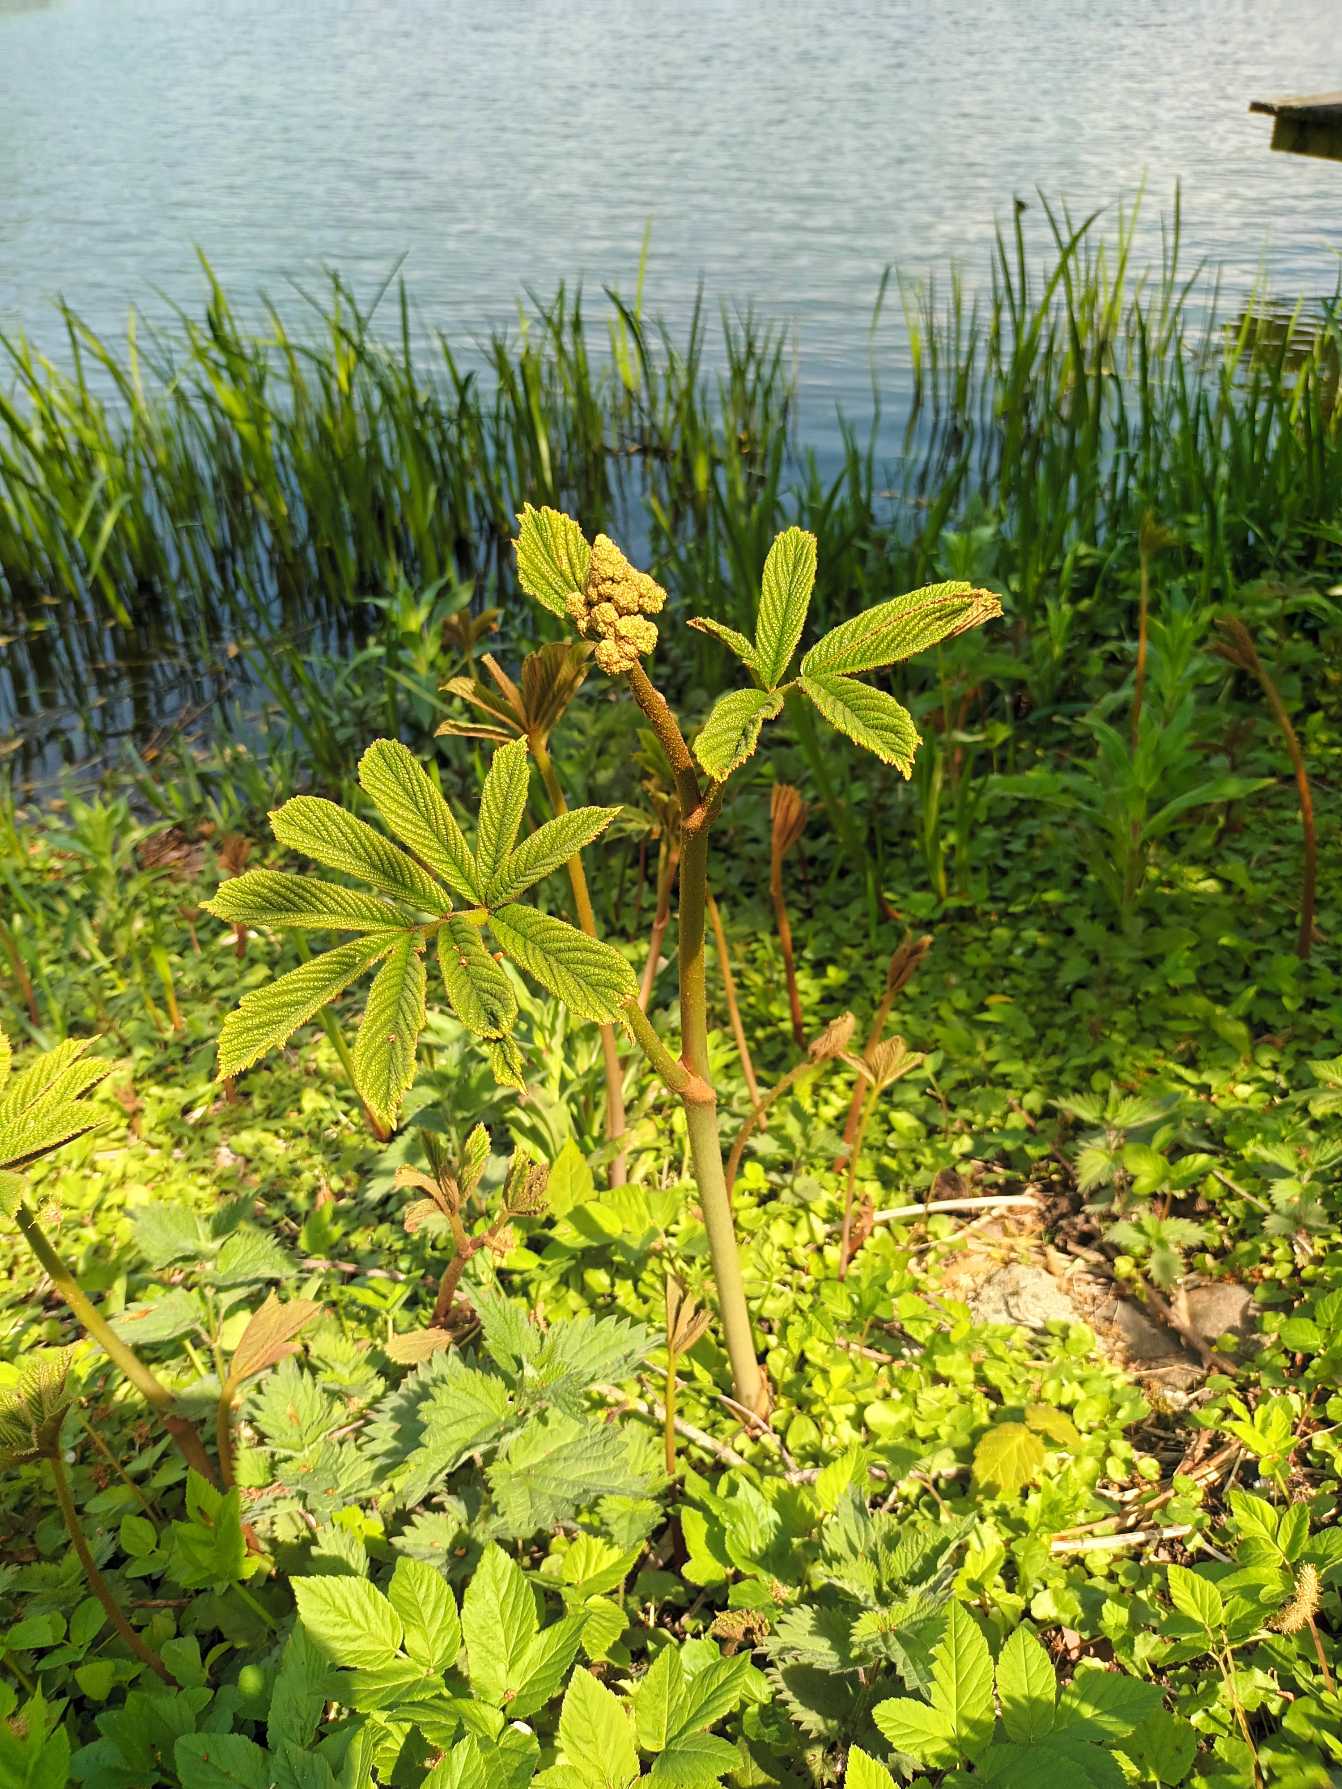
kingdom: Plantae
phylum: Tracheophyta
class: Magnoliopsida
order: Saxifragales
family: Saxifragaceae
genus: Rodgersia
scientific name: Rodgersia pinnata
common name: Finnet bronzeblad
